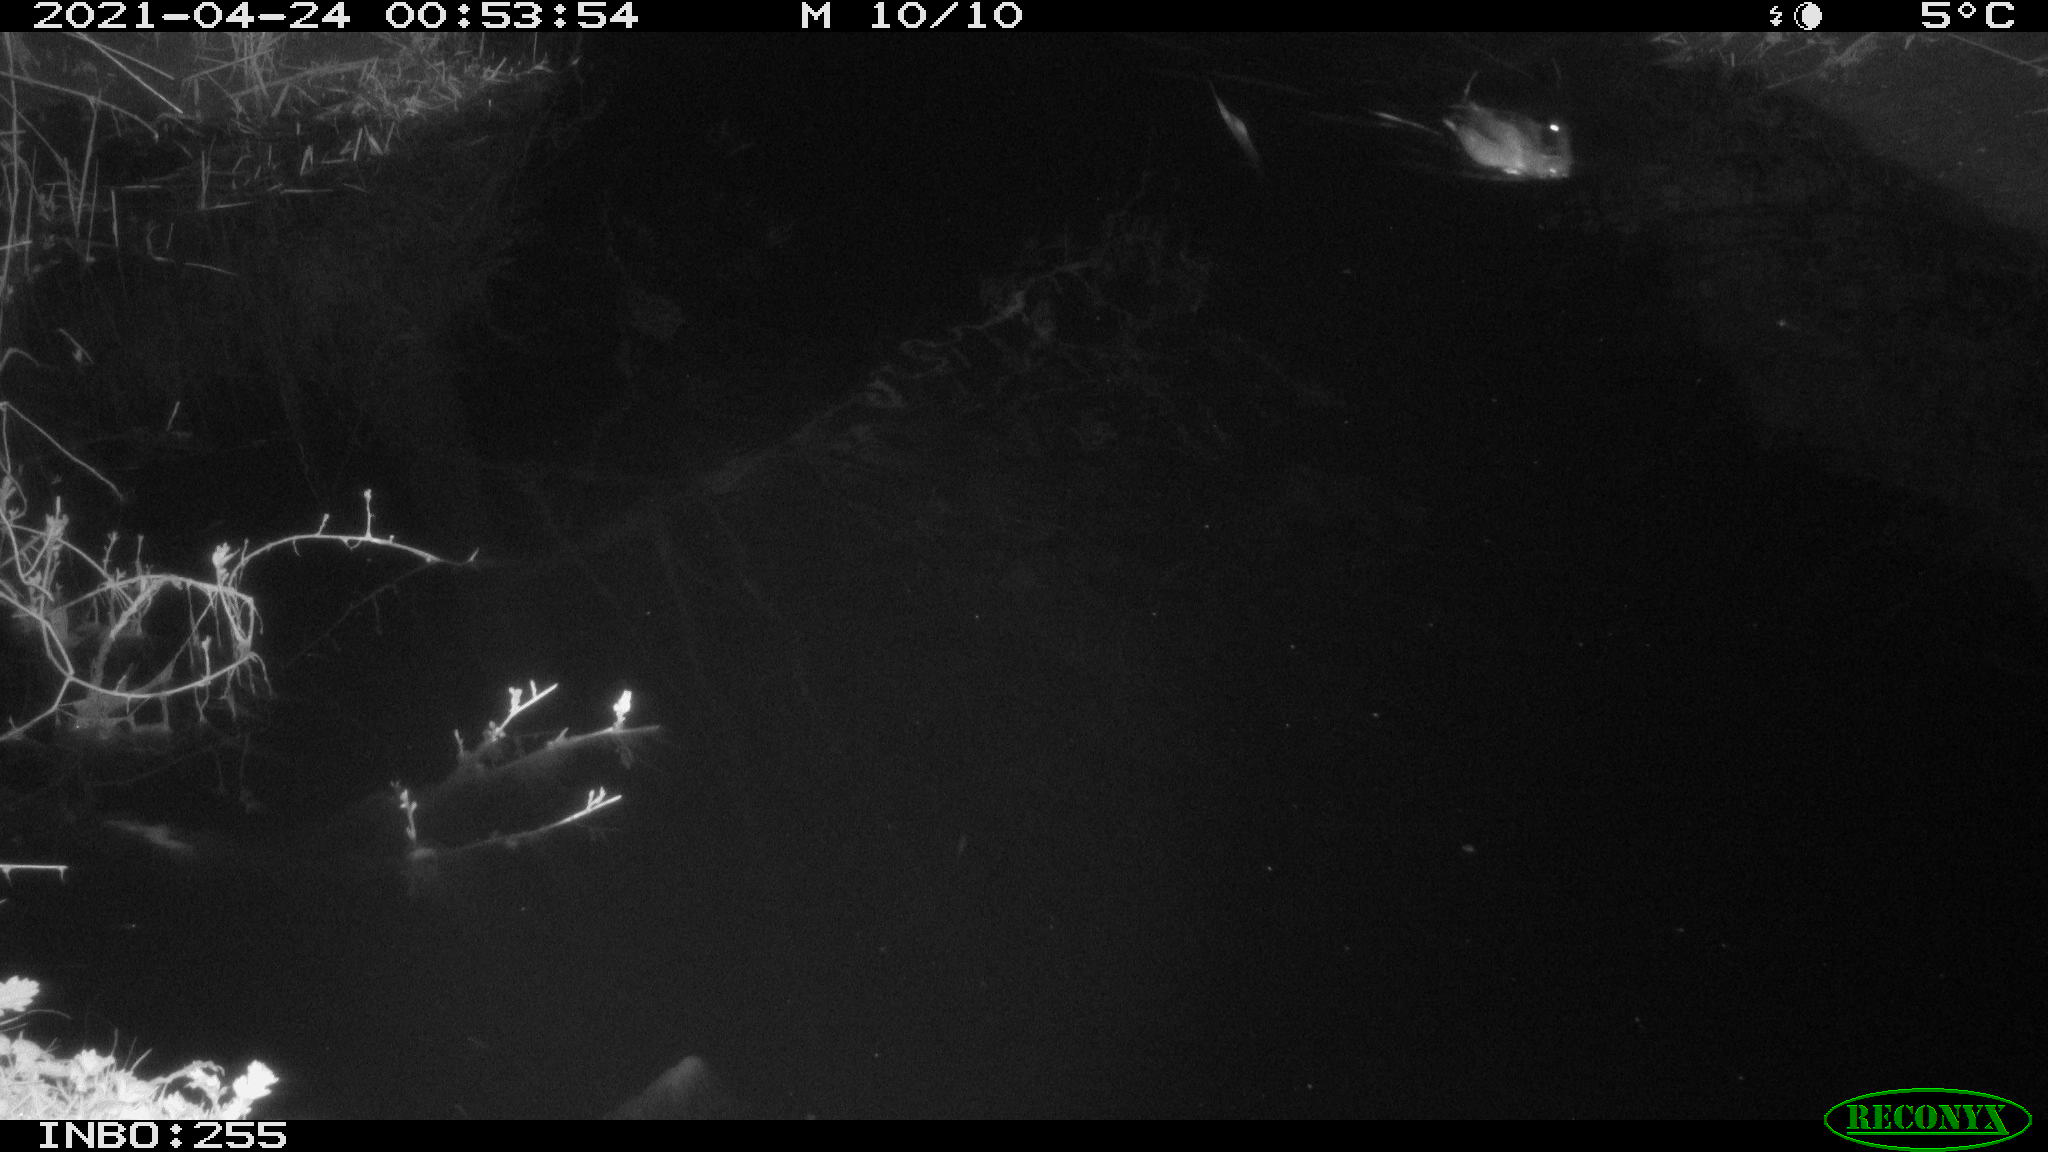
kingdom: Animalia
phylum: Chordata
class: Aves
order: Anseriformes
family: Anatidae
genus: Anas
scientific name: Anas platyrhynchos
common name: Mallard
